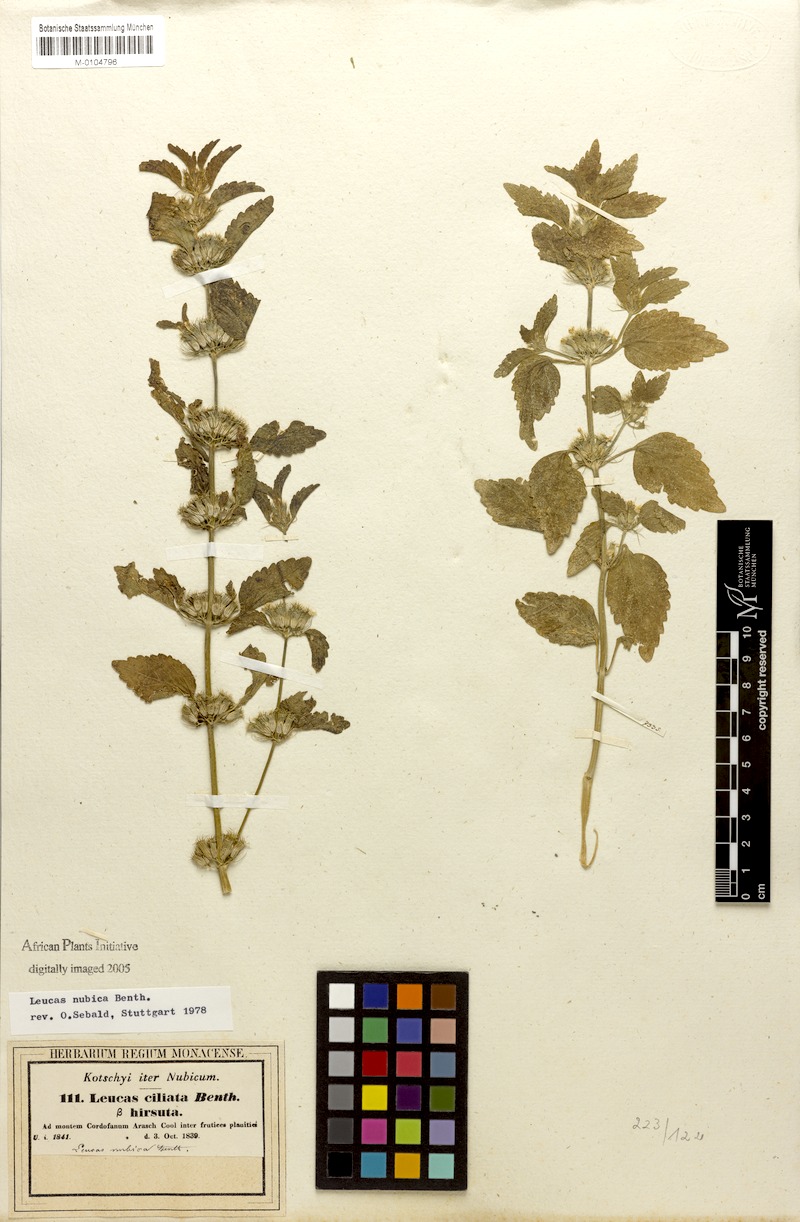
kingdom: Plantae
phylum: Tracheophyta
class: Magnoliopsida
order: Lamiales
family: Lamiaceae
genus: Leucas
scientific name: Leucas nubica
